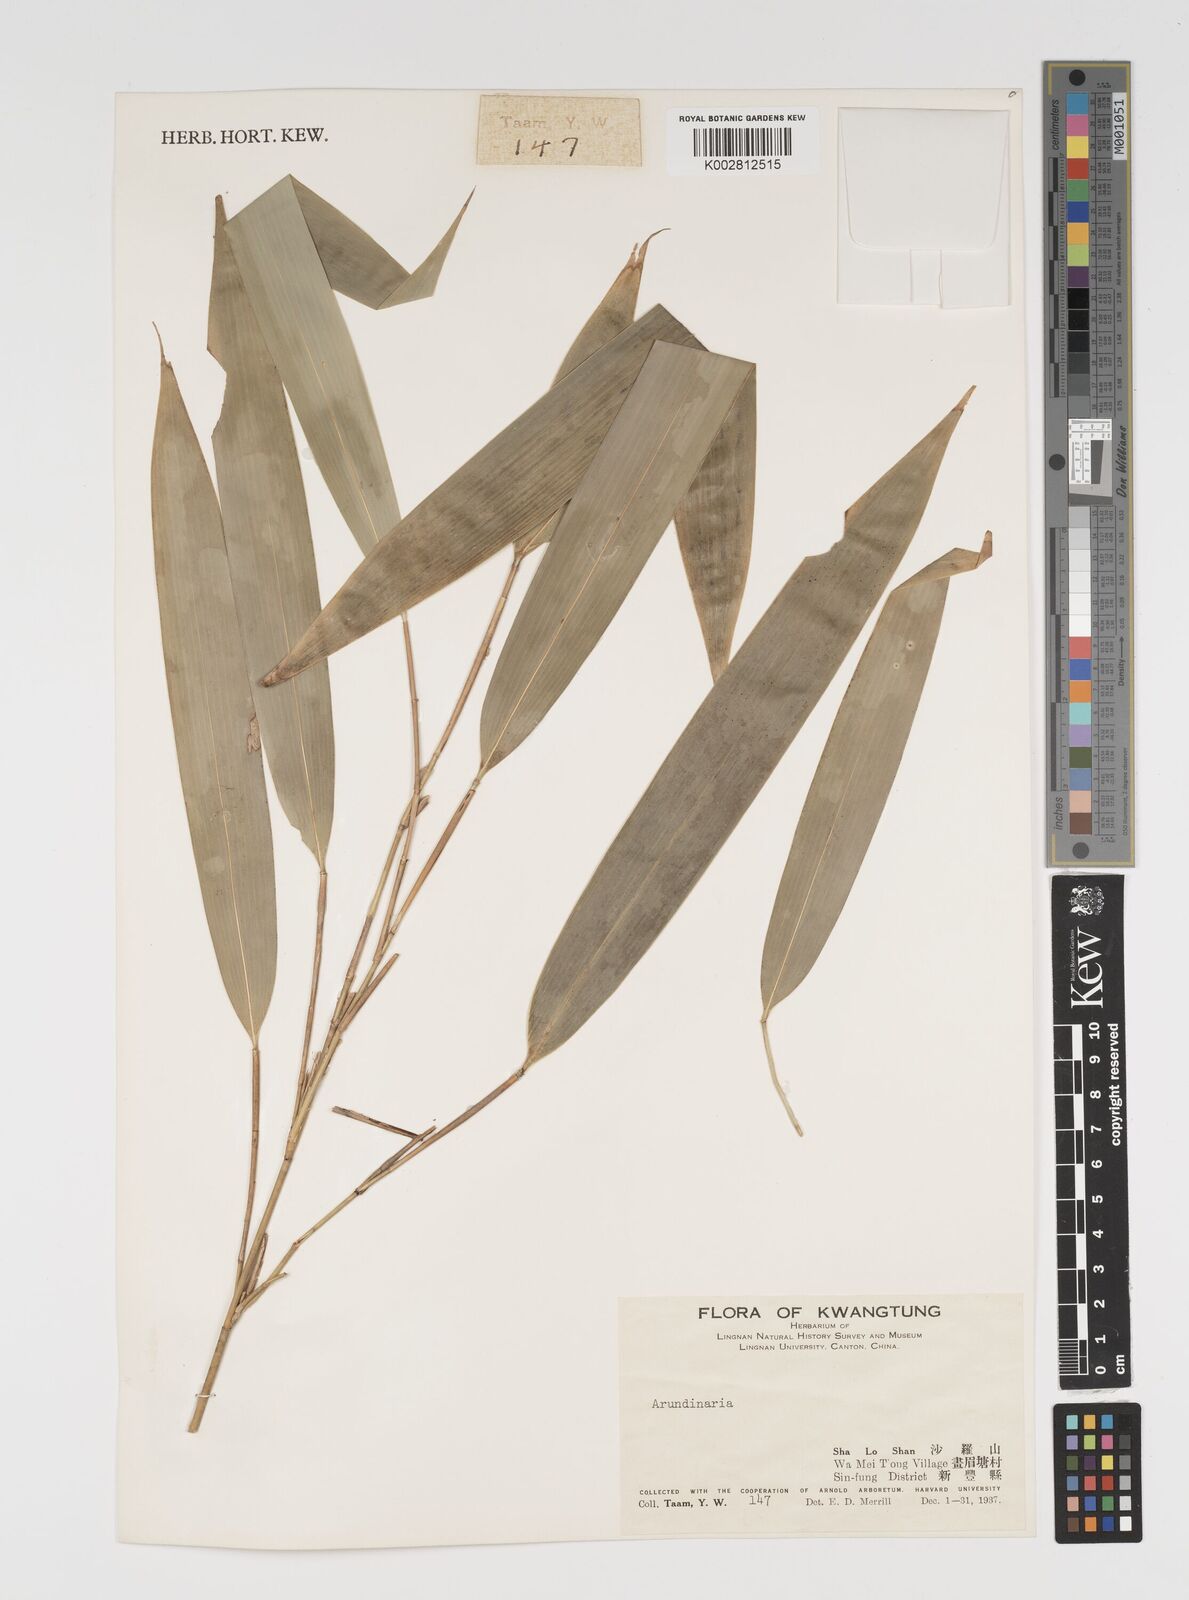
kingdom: Plantae
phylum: Tracheophyta
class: Liliopsida
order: Poales
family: Poaceae
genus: Arundinaria
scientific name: Arundinaria
